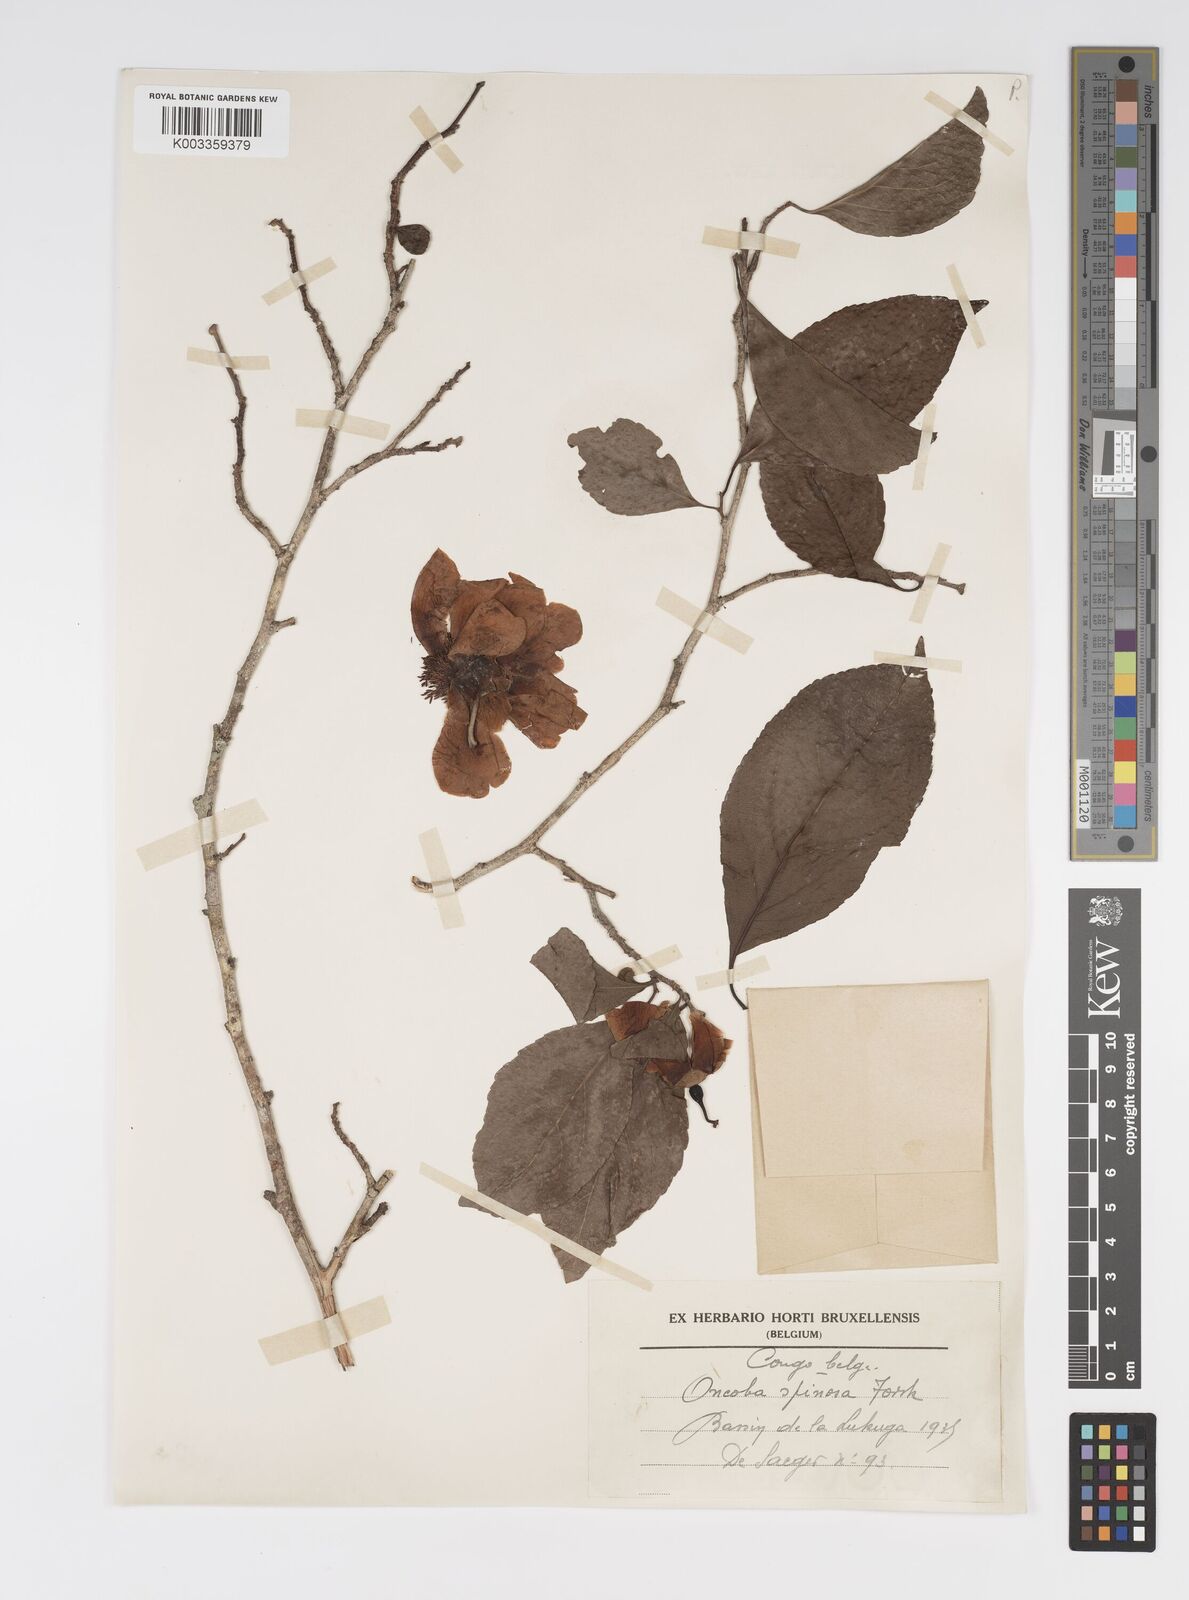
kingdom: Plantae
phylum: Tracheophyta
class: Magnoliopsida
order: Malpighiales
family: Salicaceae
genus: Oncoba
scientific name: Oncoba spinosa
